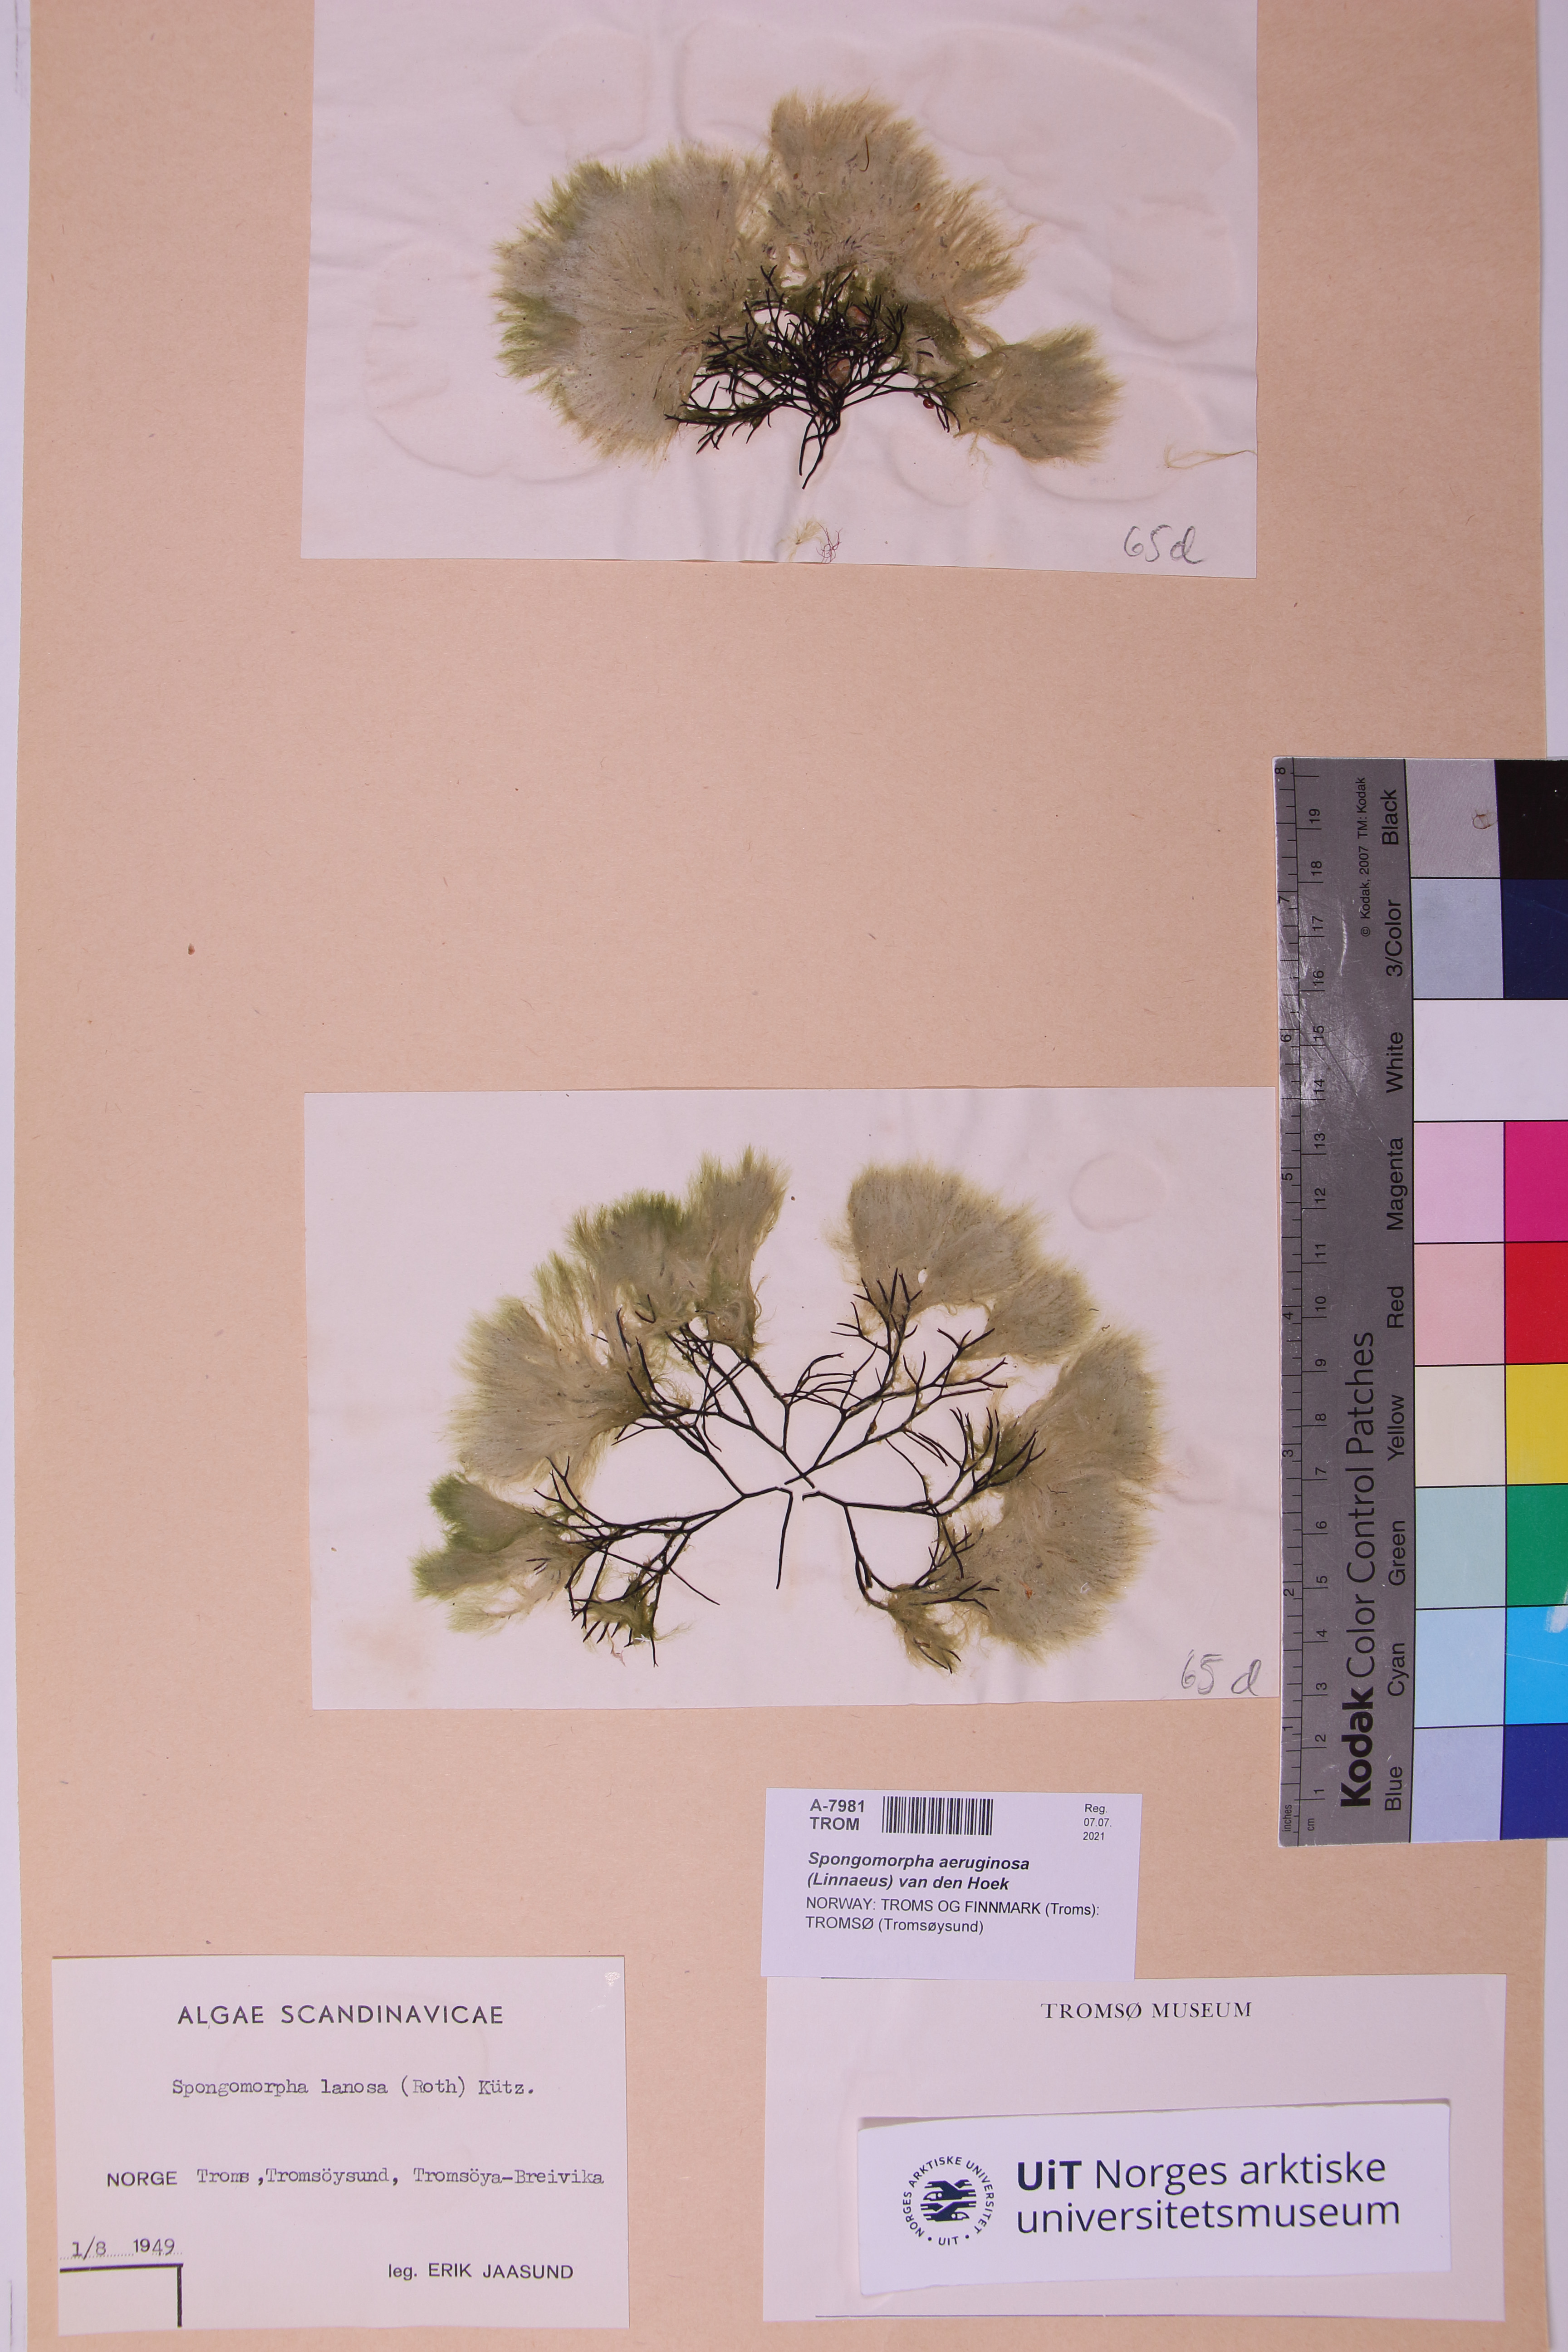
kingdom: Plantae
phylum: Chlorophyta
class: Ulvophyceae
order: Ulotrichales
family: Ulotrichaceae
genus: Spongomorpha
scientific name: Spongomorpha aeruginosa
